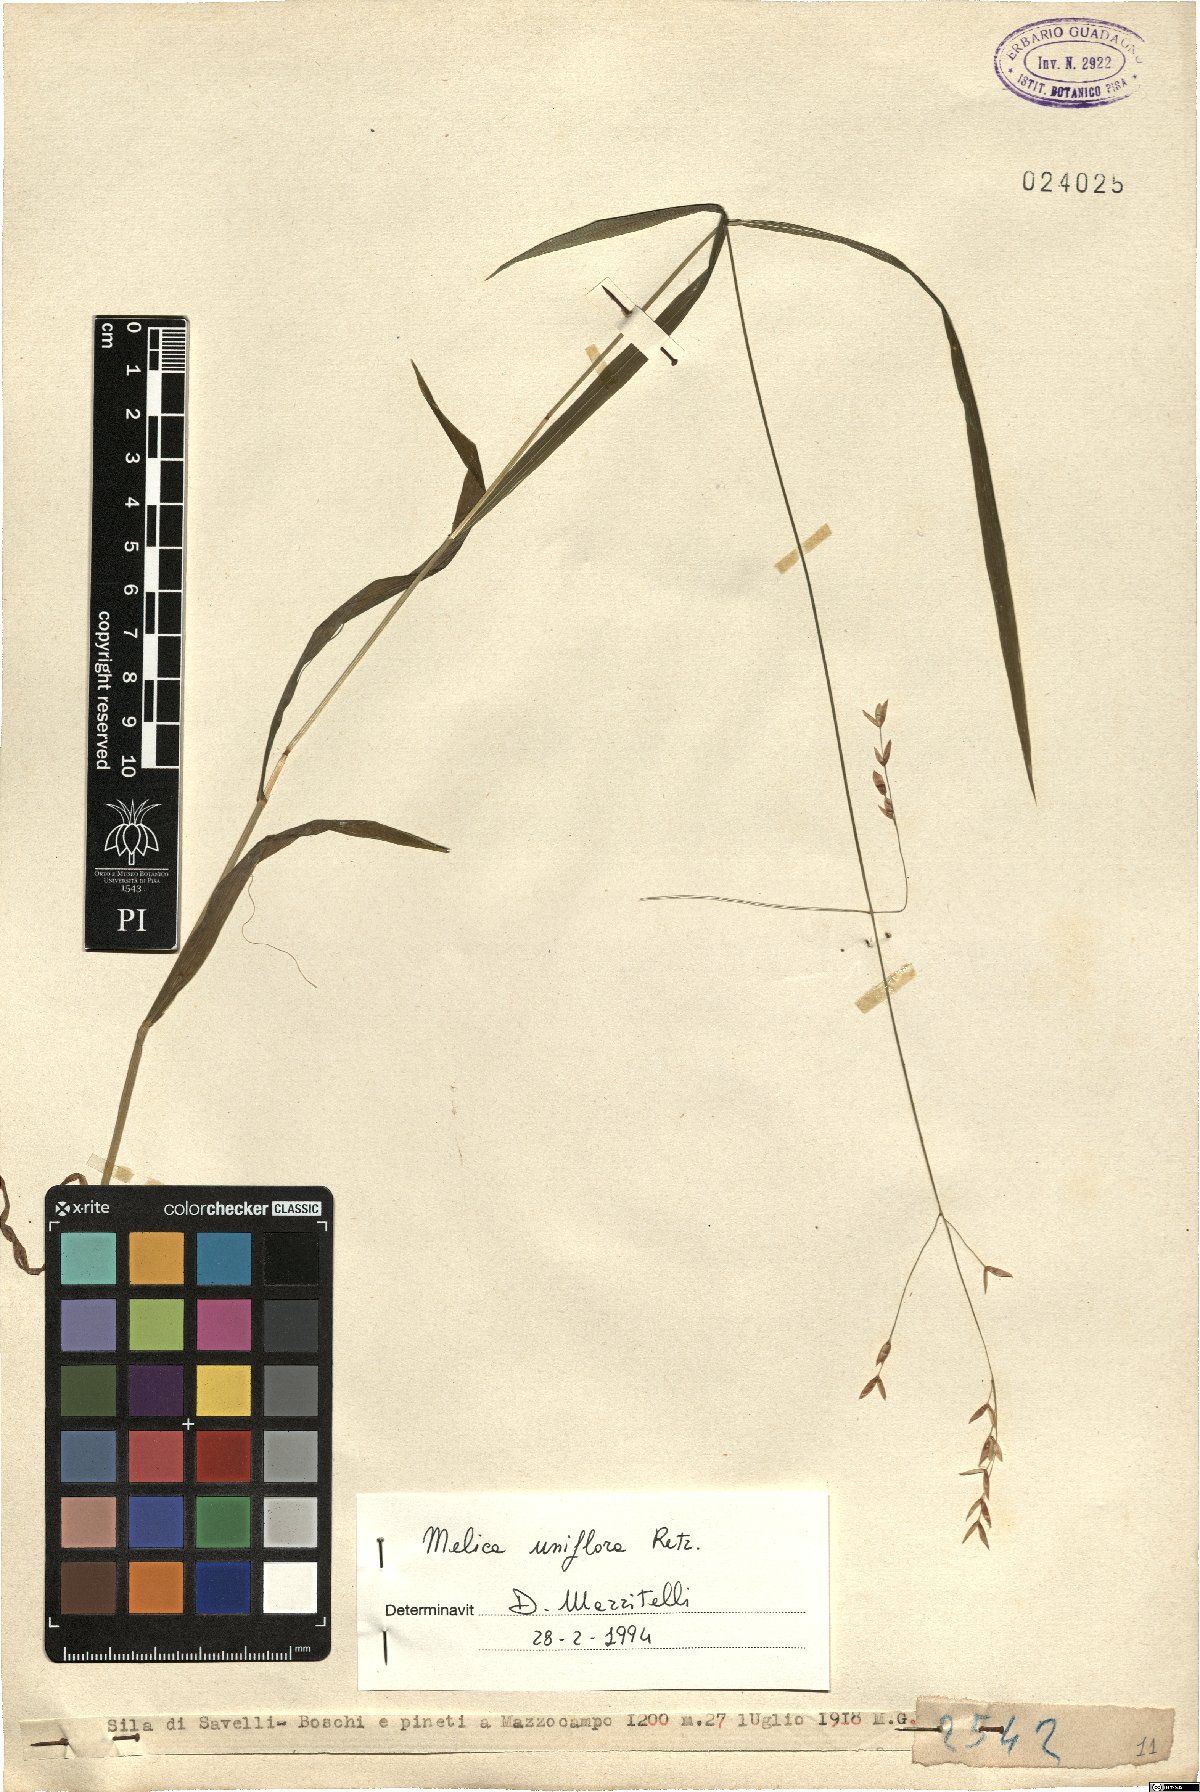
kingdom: Plantae
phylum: Tracheophyta
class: Liliopsida
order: Poales
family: Poaceae
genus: Melica
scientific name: Melica uniflora
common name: Wood melick
